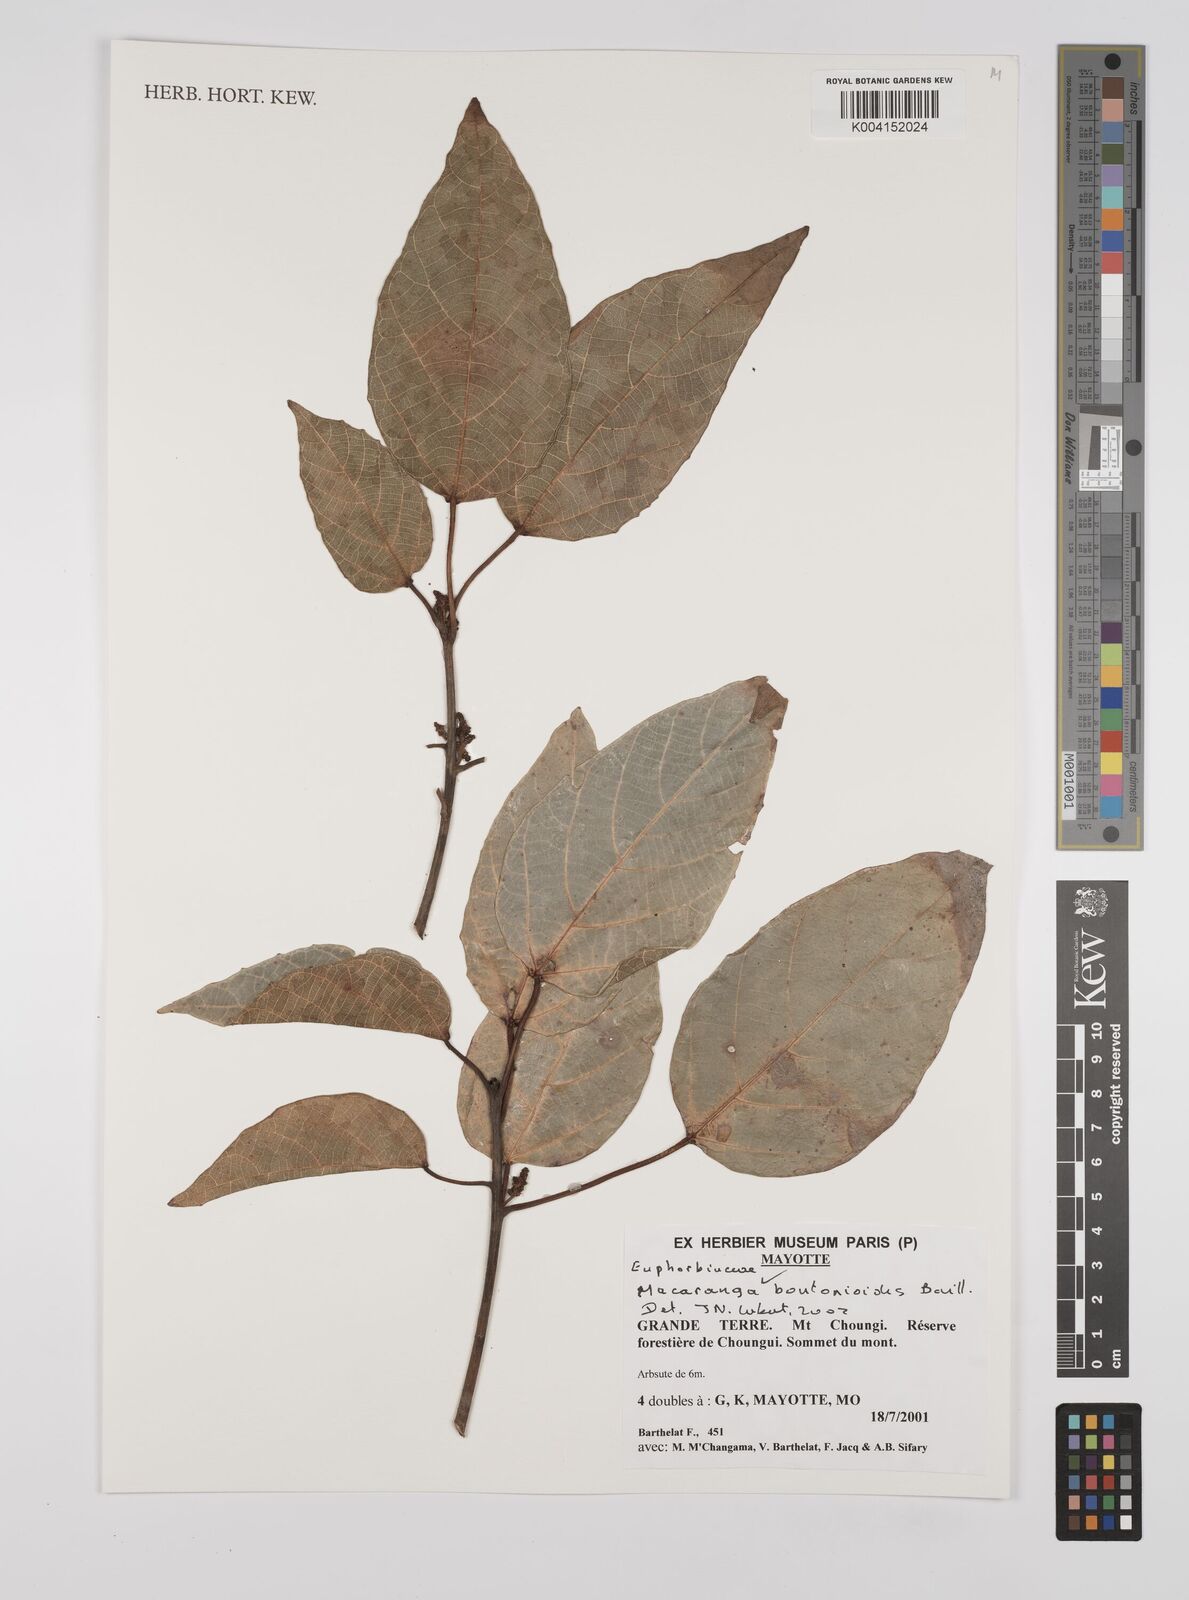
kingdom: Plantae
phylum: Tracheophyta
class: Magnoliopsida
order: Malpighiales
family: Euphorbiaceae
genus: Macaranga
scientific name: Macaranga boutonioides
